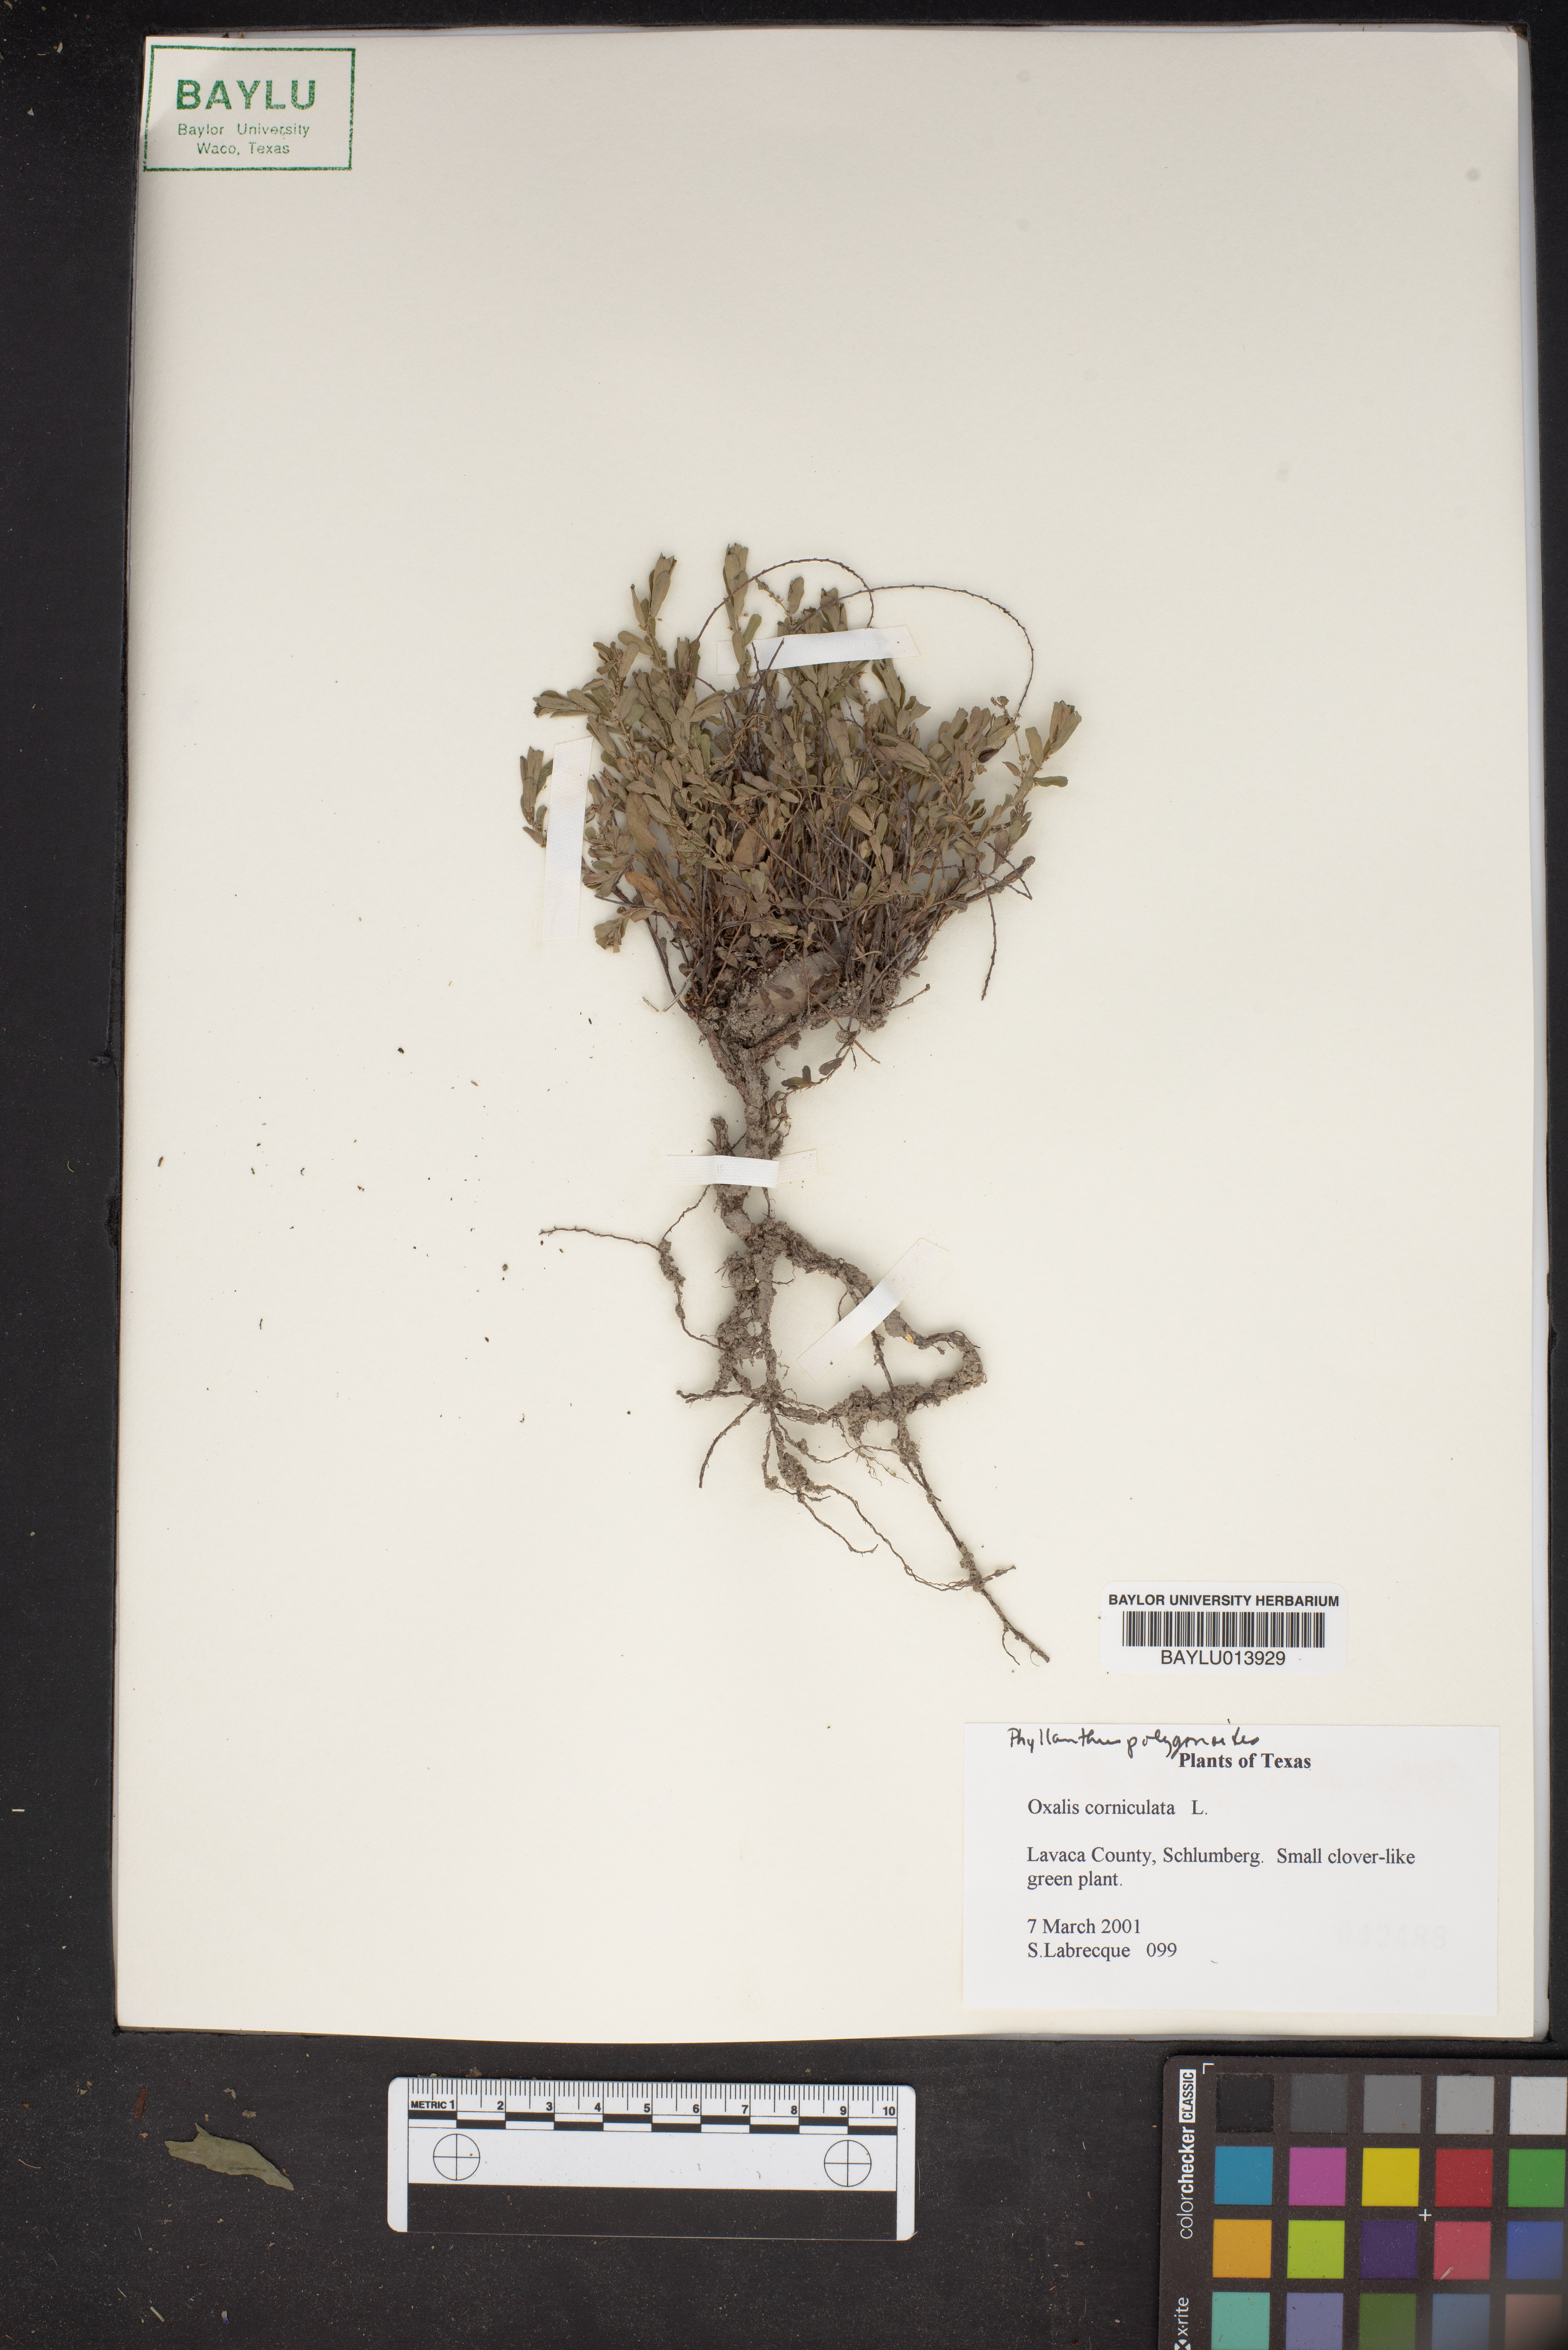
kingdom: Plantae
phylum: Tracheophyta
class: Magnoliopsida
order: Oxalidales
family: Oxalidaceae
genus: Oxalis
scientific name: Oxalis corniculata
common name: Procumbent yellow-sorrel
